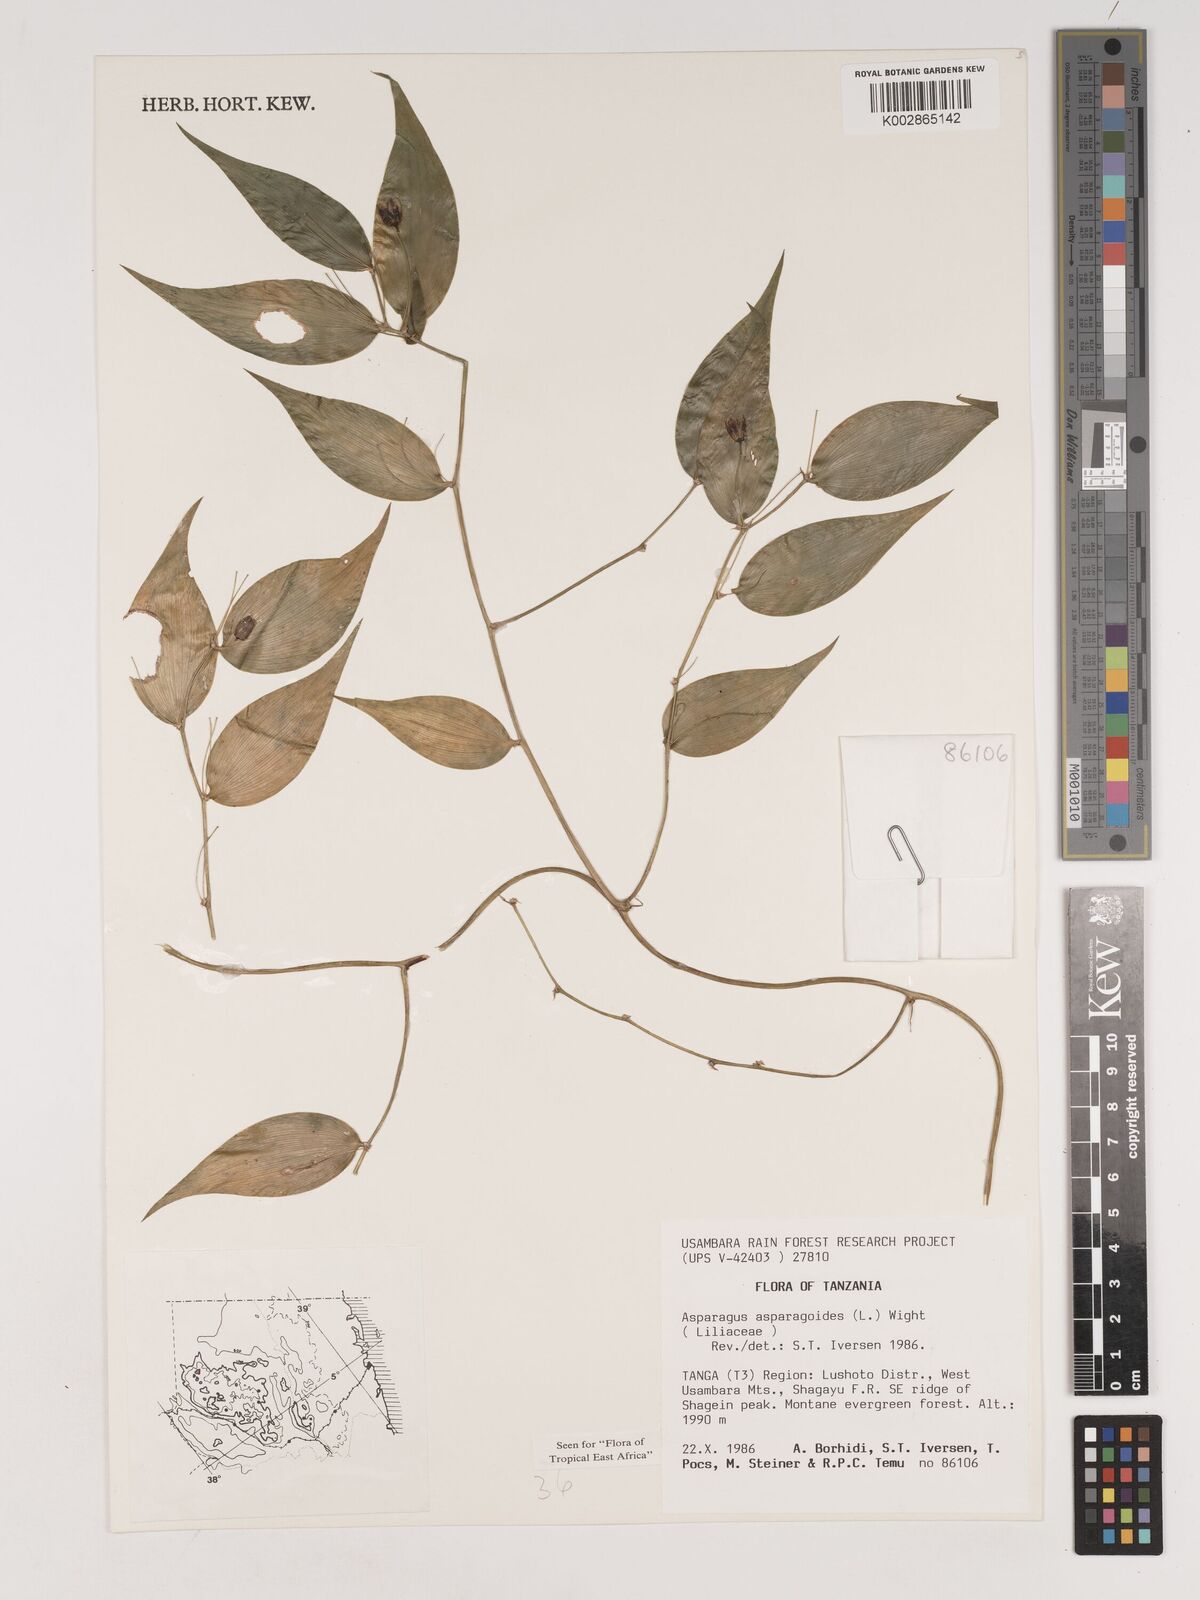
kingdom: Plantae
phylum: Tracheophyta
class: Liliopsida
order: Asparagales
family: Asparagaceae
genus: Asparagus
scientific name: Asparagus asparagoides
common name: African asparagus fern
